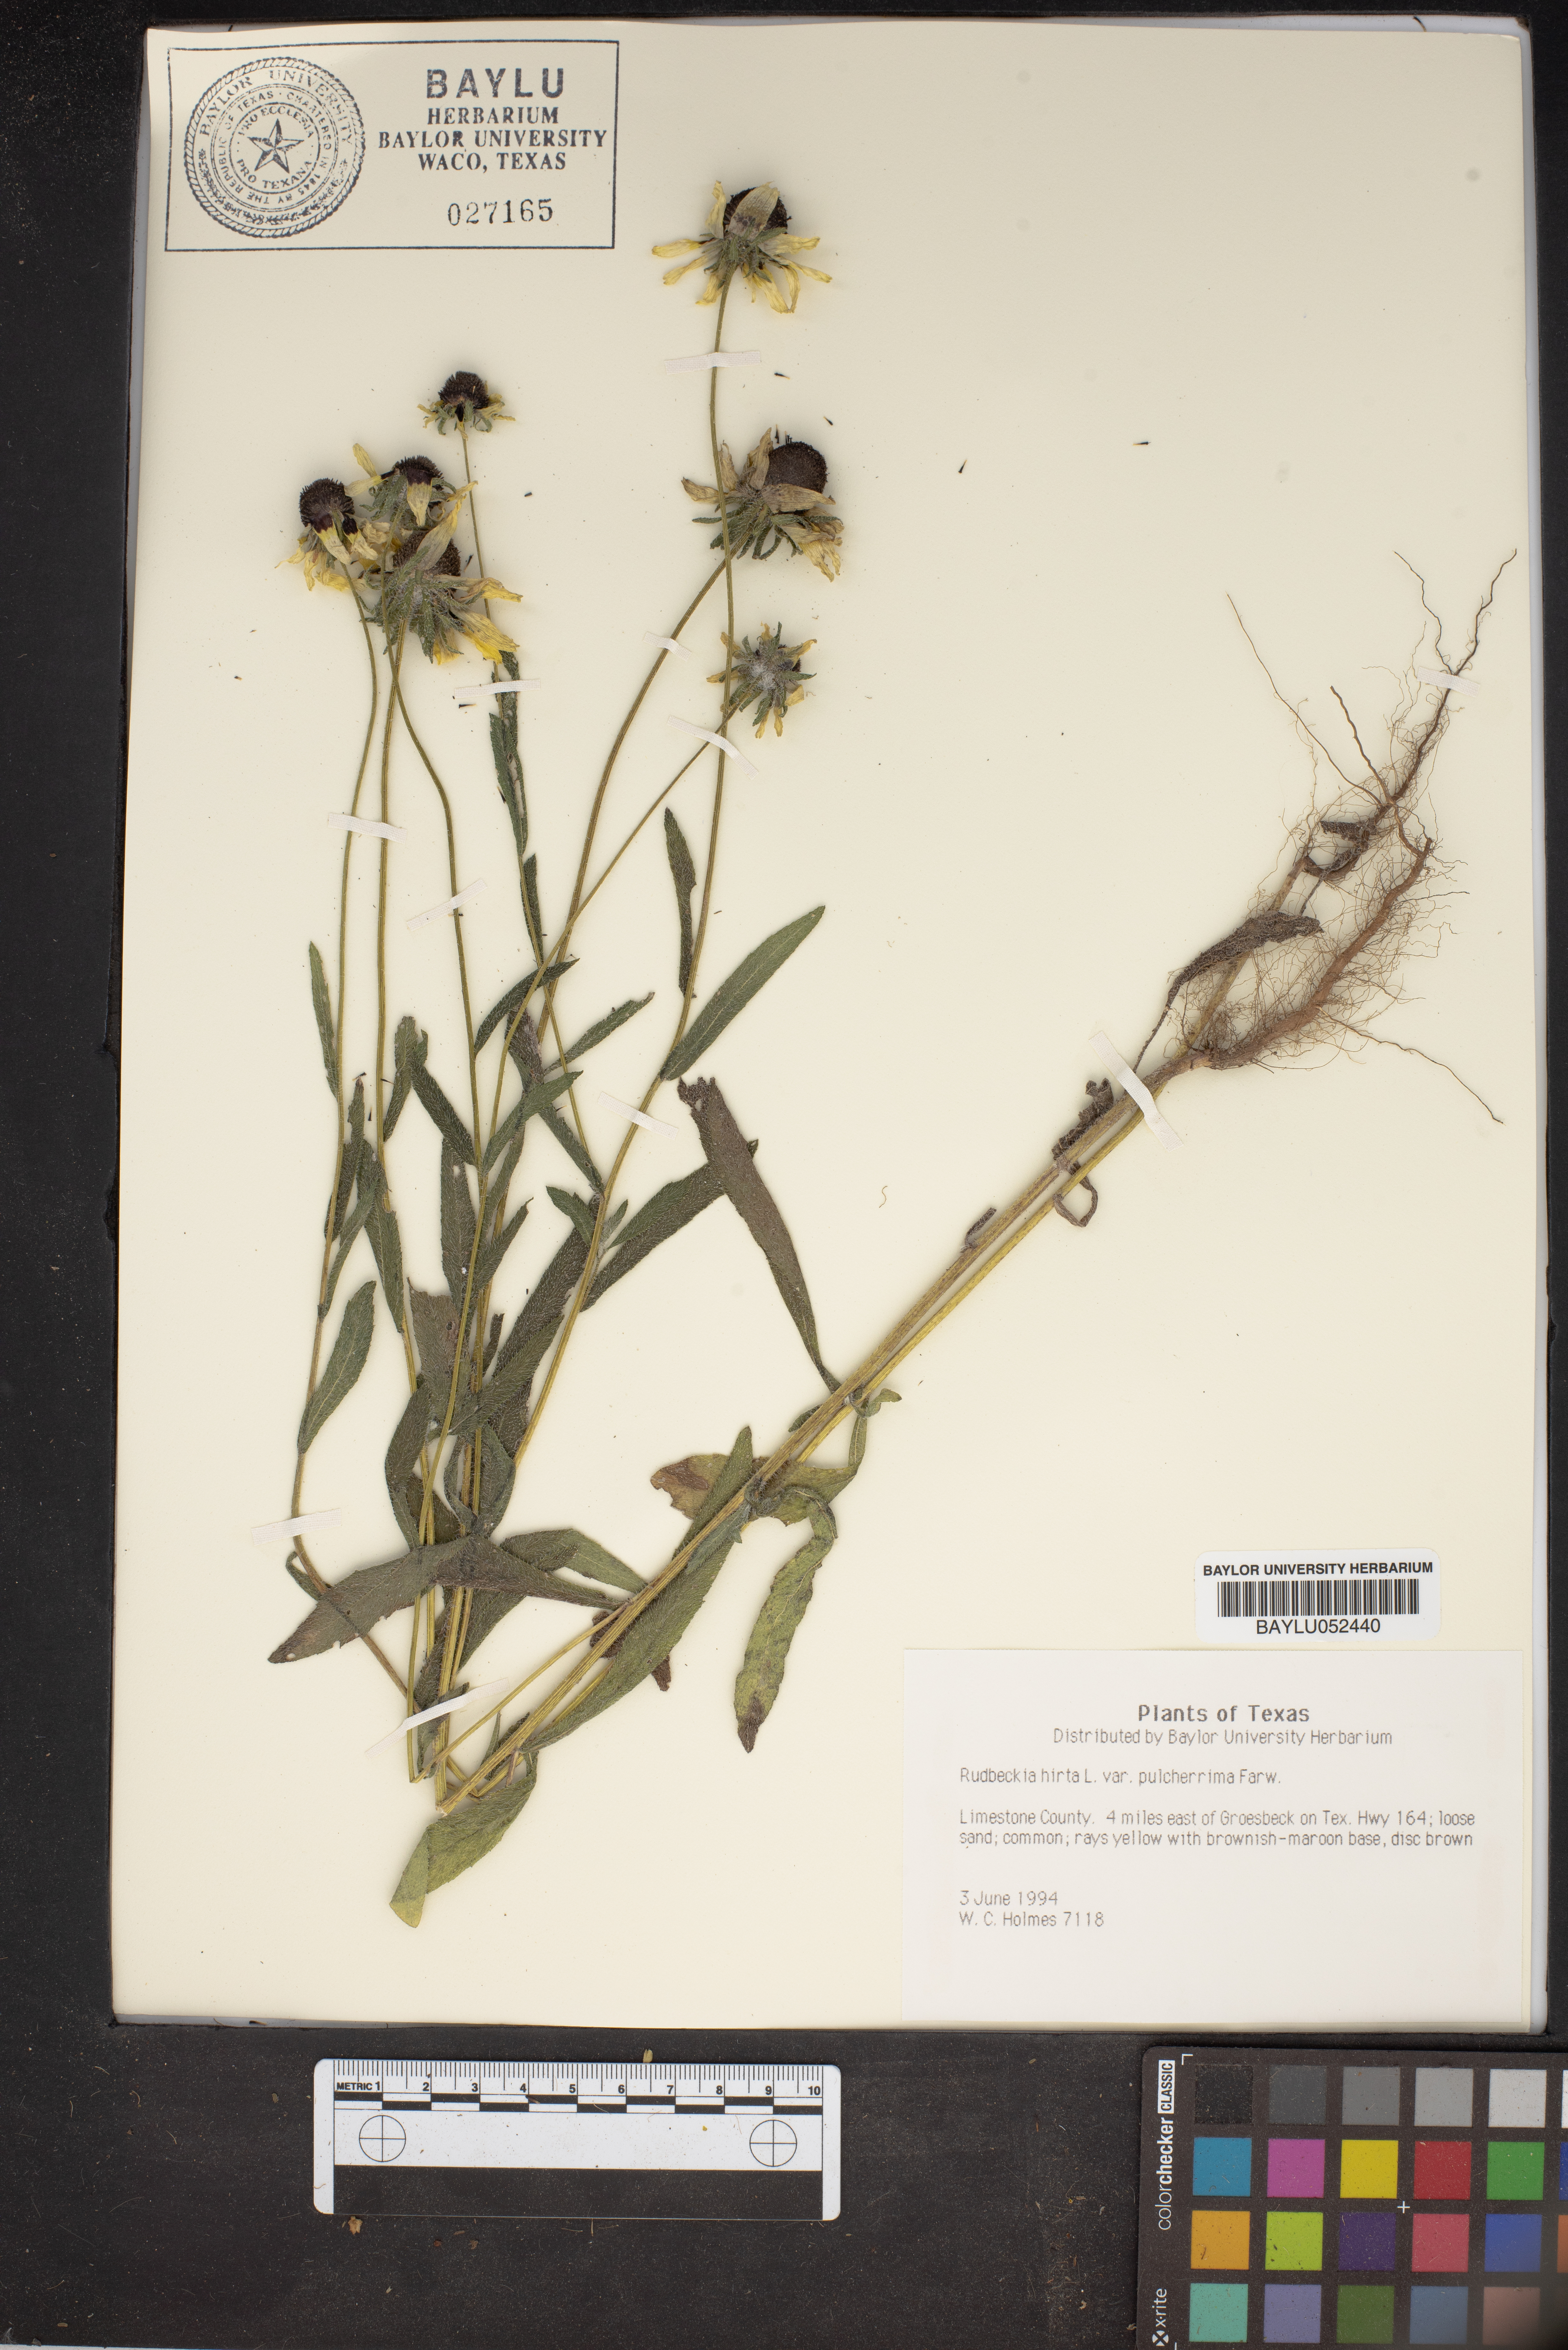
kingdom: Plantae
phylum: Tracheophyta
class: Magnoliopsida
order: Asterales
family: Asteraceae
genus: Rudbeckia
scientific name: Rudbeckia hirta
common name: Black-eyed-susan
